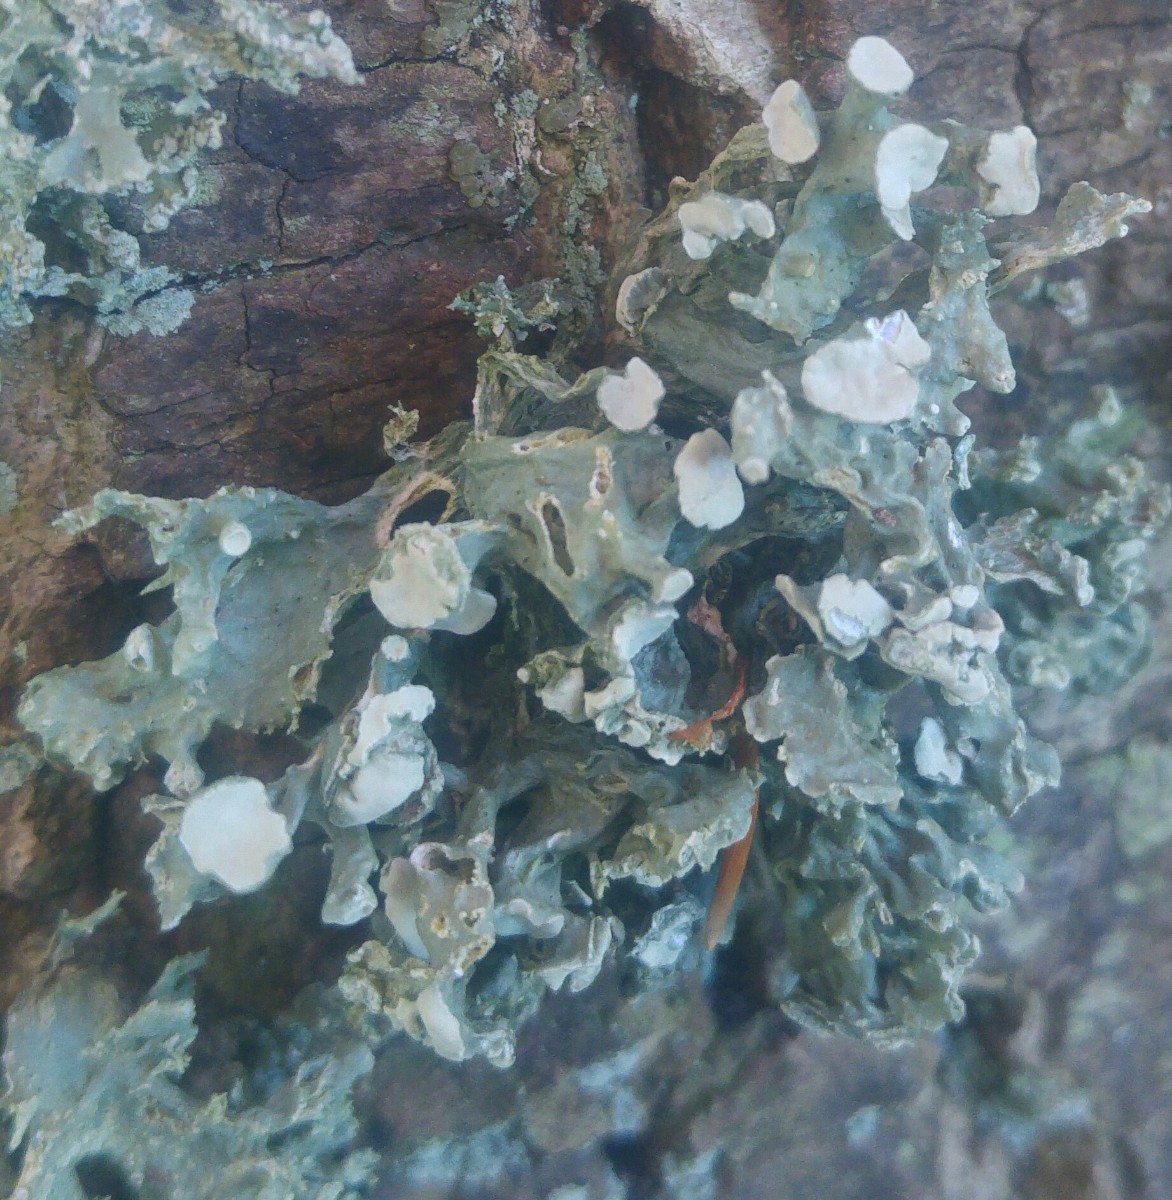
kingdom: Fungi
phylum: Ascomycota
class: Lecanoromycetes
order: Lecanorales
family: Ramalinaceae
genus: Ramalina
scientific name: Ramalina fastigiata
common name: tue-grenlav
